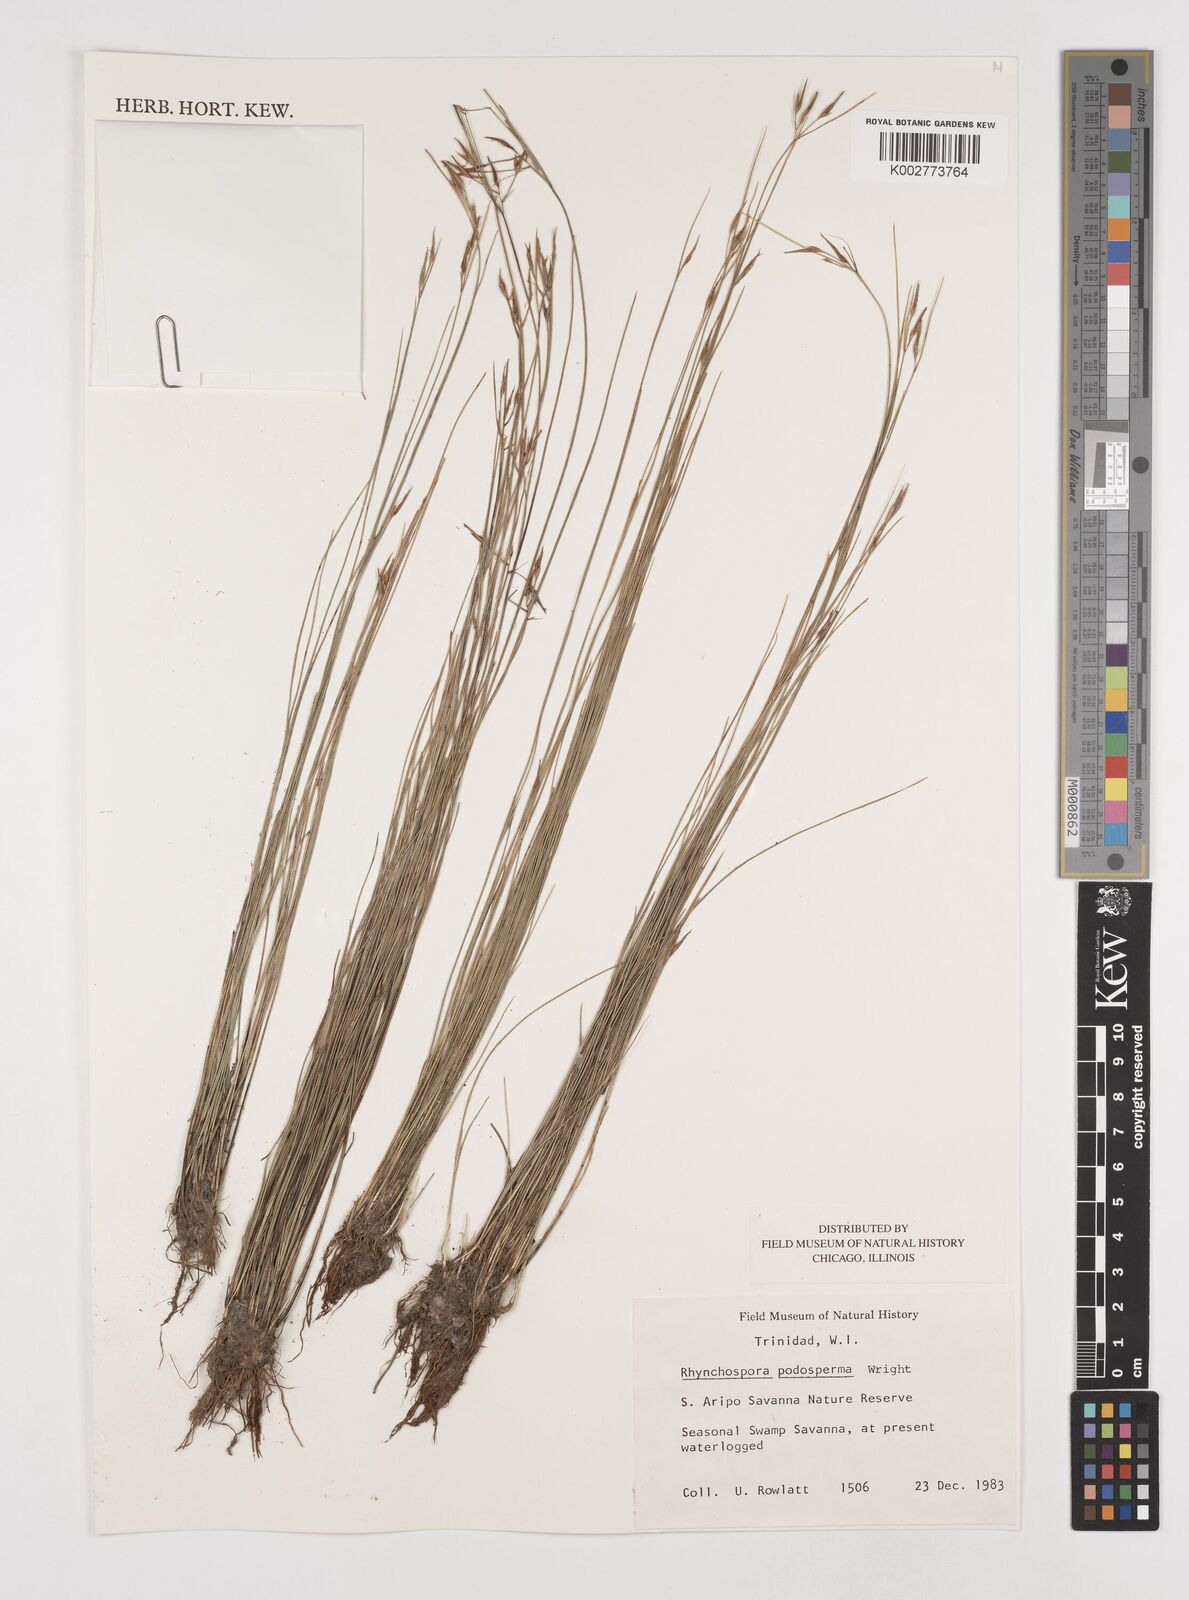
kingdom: Plantae
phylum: Tracheophyta
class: Liliopsida
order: Poales
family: Cyperaceae
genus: Rhynchospora
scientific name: Rhynchospora filiformis
